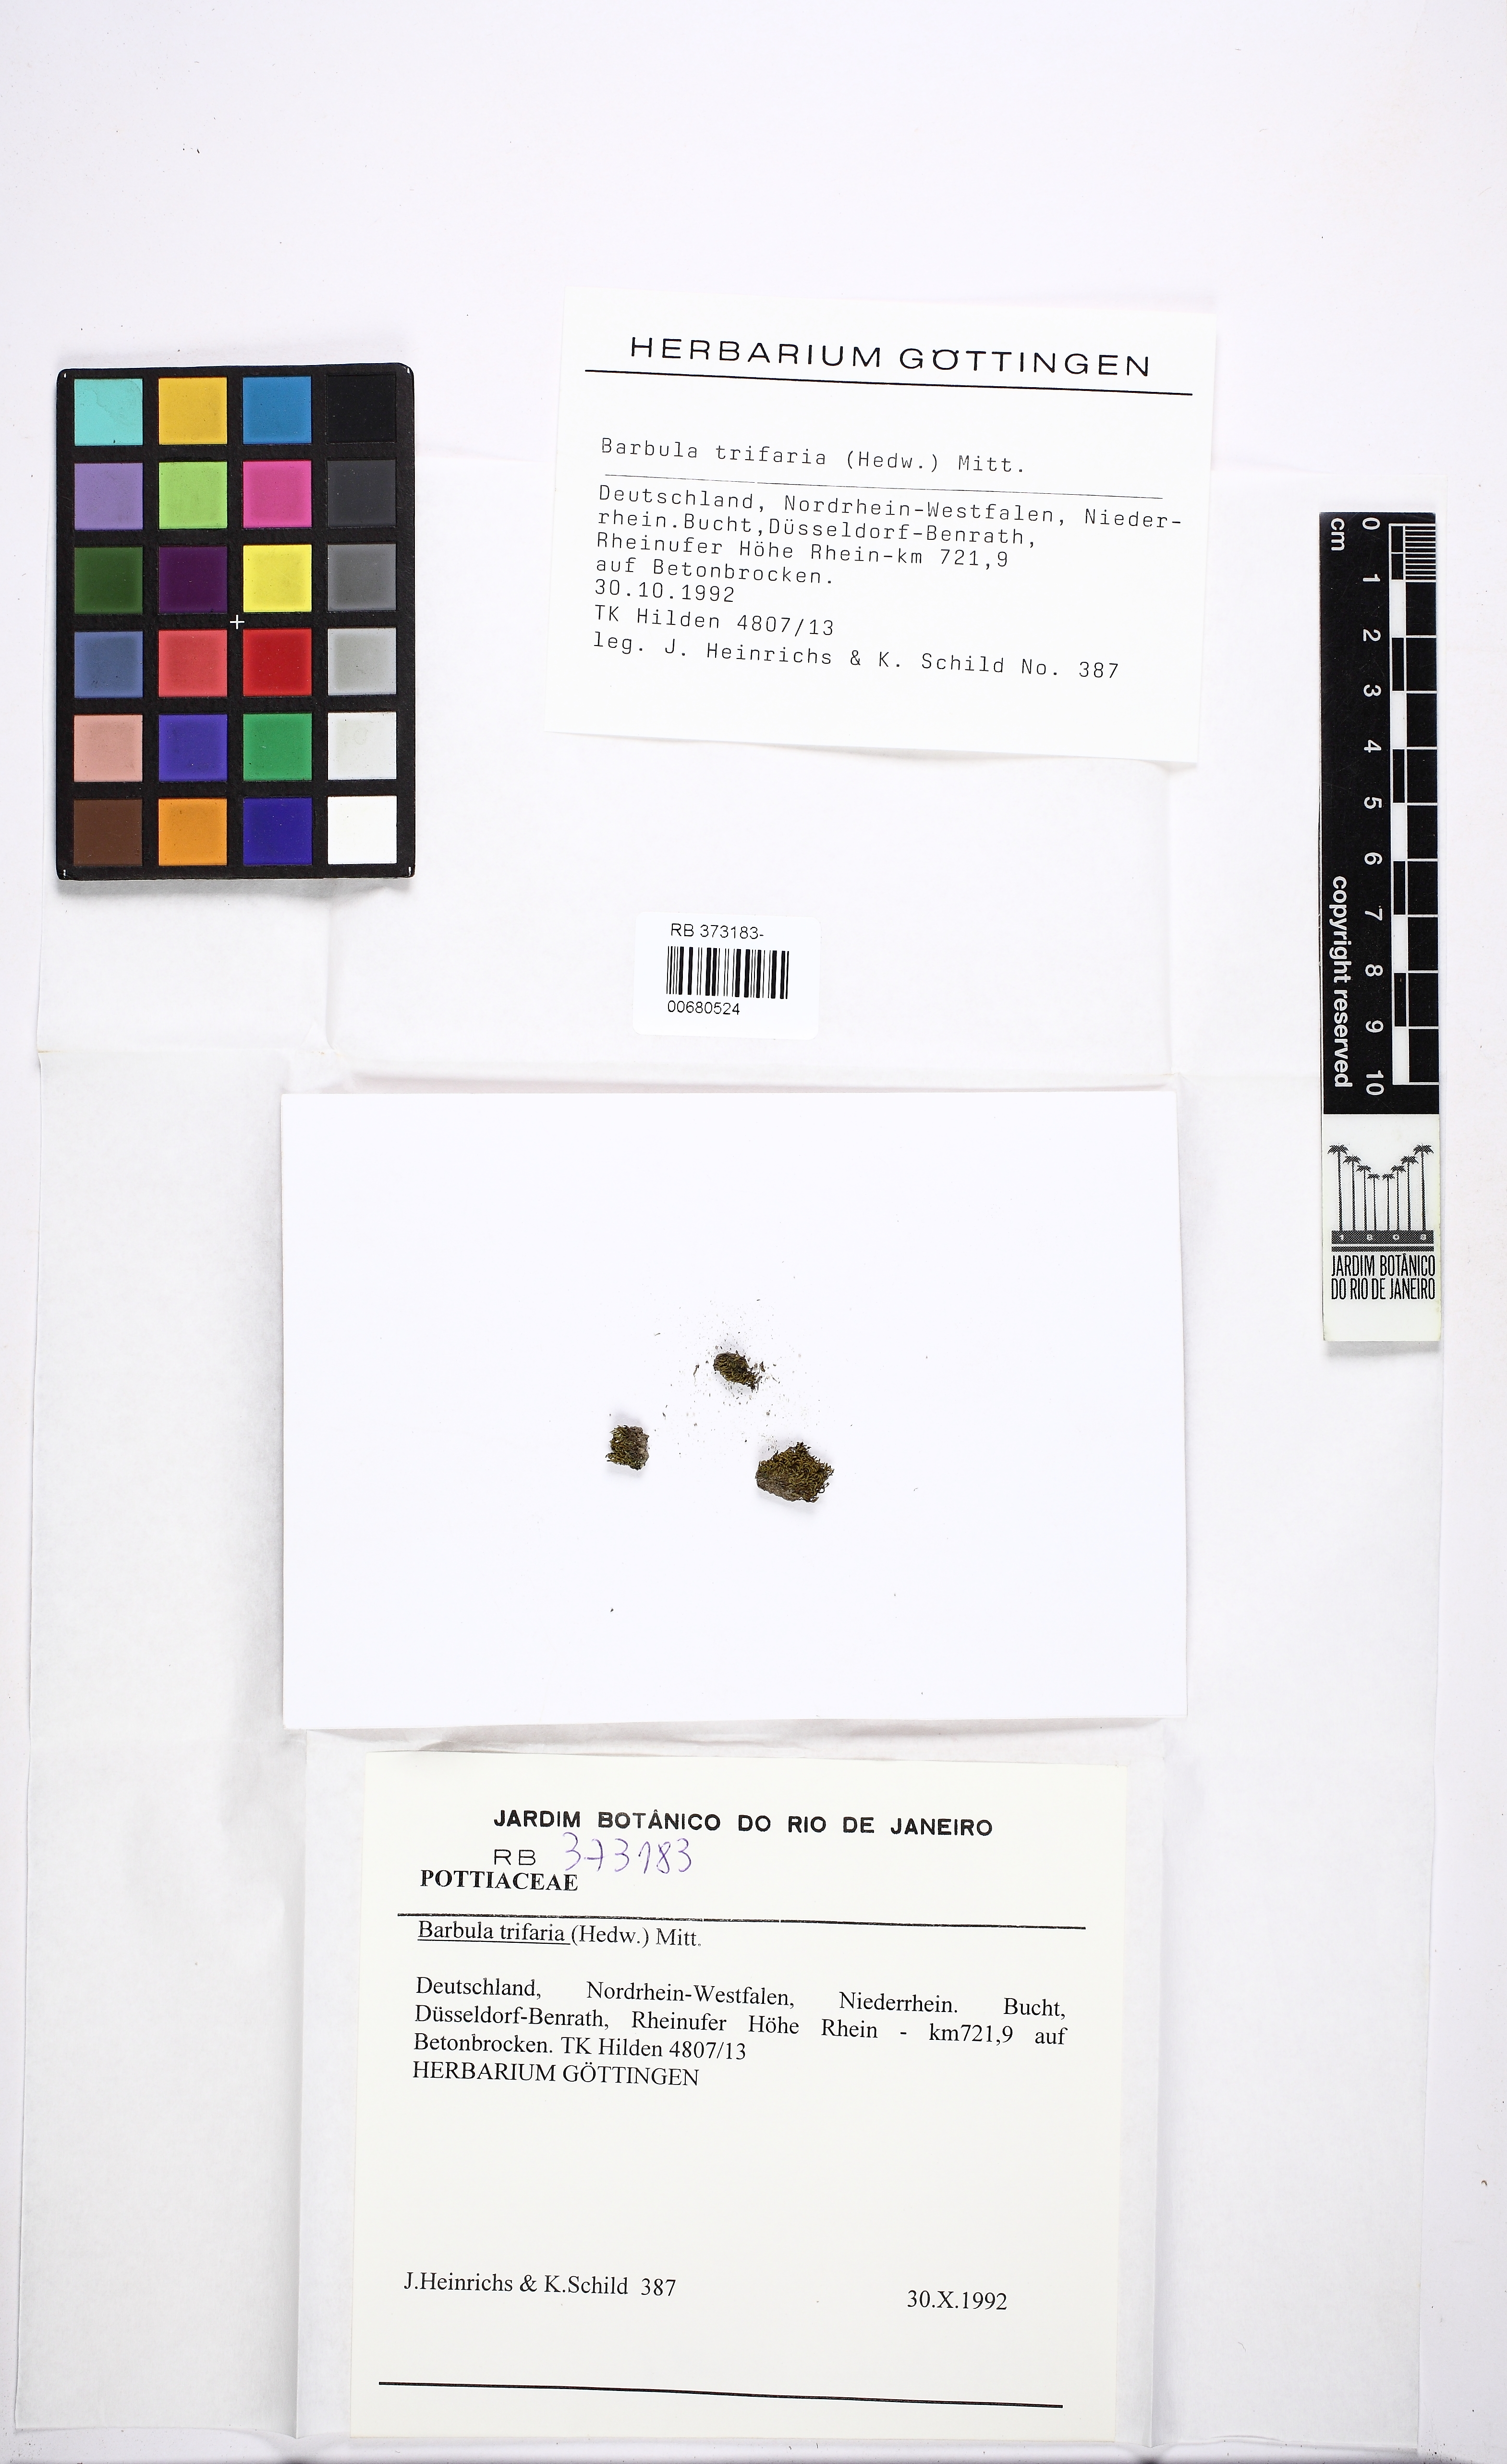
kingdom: Plantae
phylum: Bryophyta
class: Bryopsida
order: Grimmiales
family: Saelaniaceae
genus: Saelania
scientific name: Saelania glaucescens
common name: Blue dew-moss
